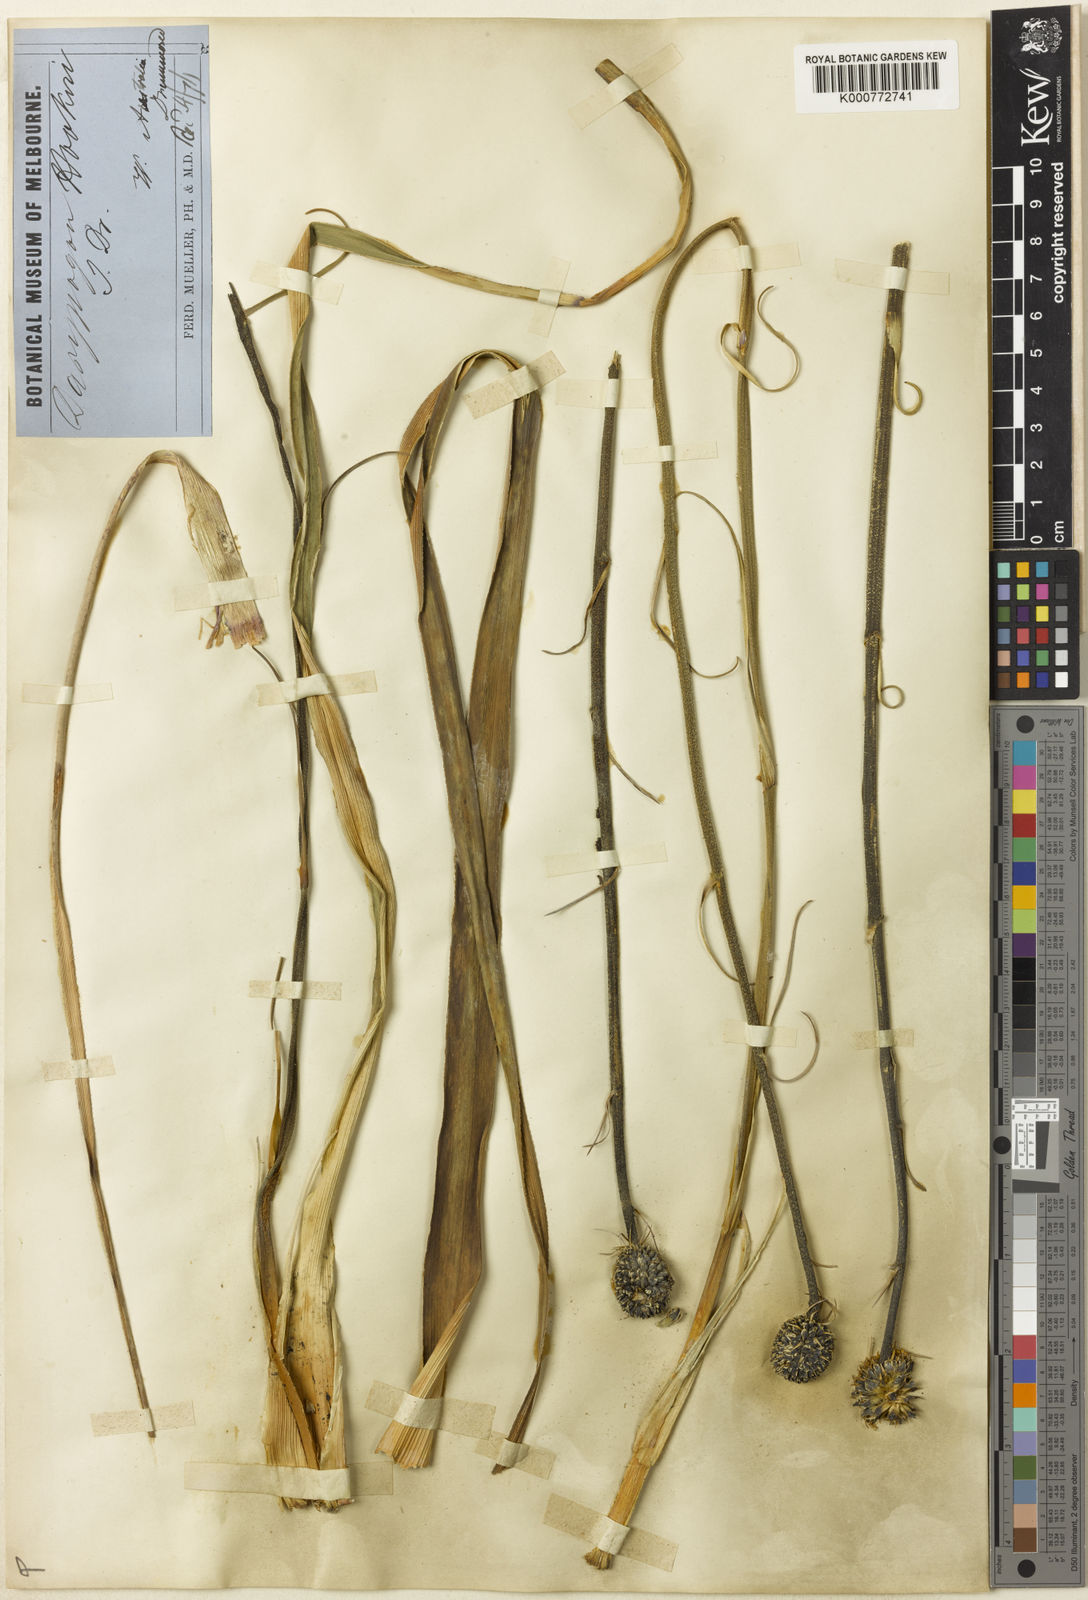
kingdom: Plantae
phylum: Tracheophyta
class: Liliopsida
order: Arecales
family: Dasypogonaceae
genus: Dasypogon
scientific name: Dasypogon hookeri
